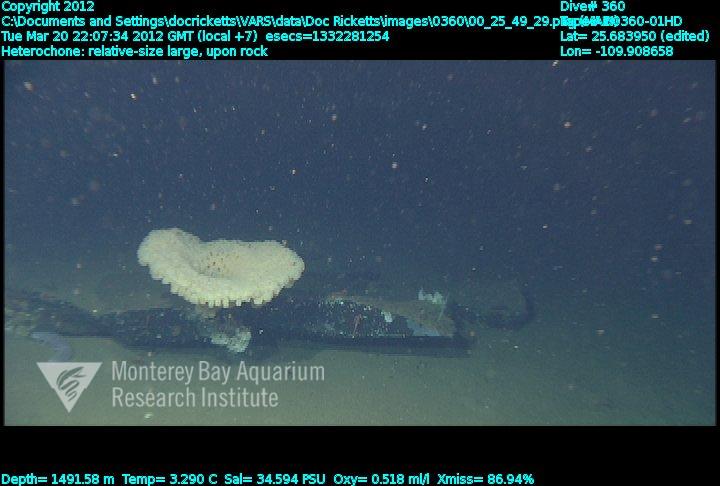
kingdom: Animalia
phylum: Porifera
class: Hexactinellida
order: Sceptrulophora
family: Aphrocallistidae
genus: Heterochone
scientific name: Heterochone
